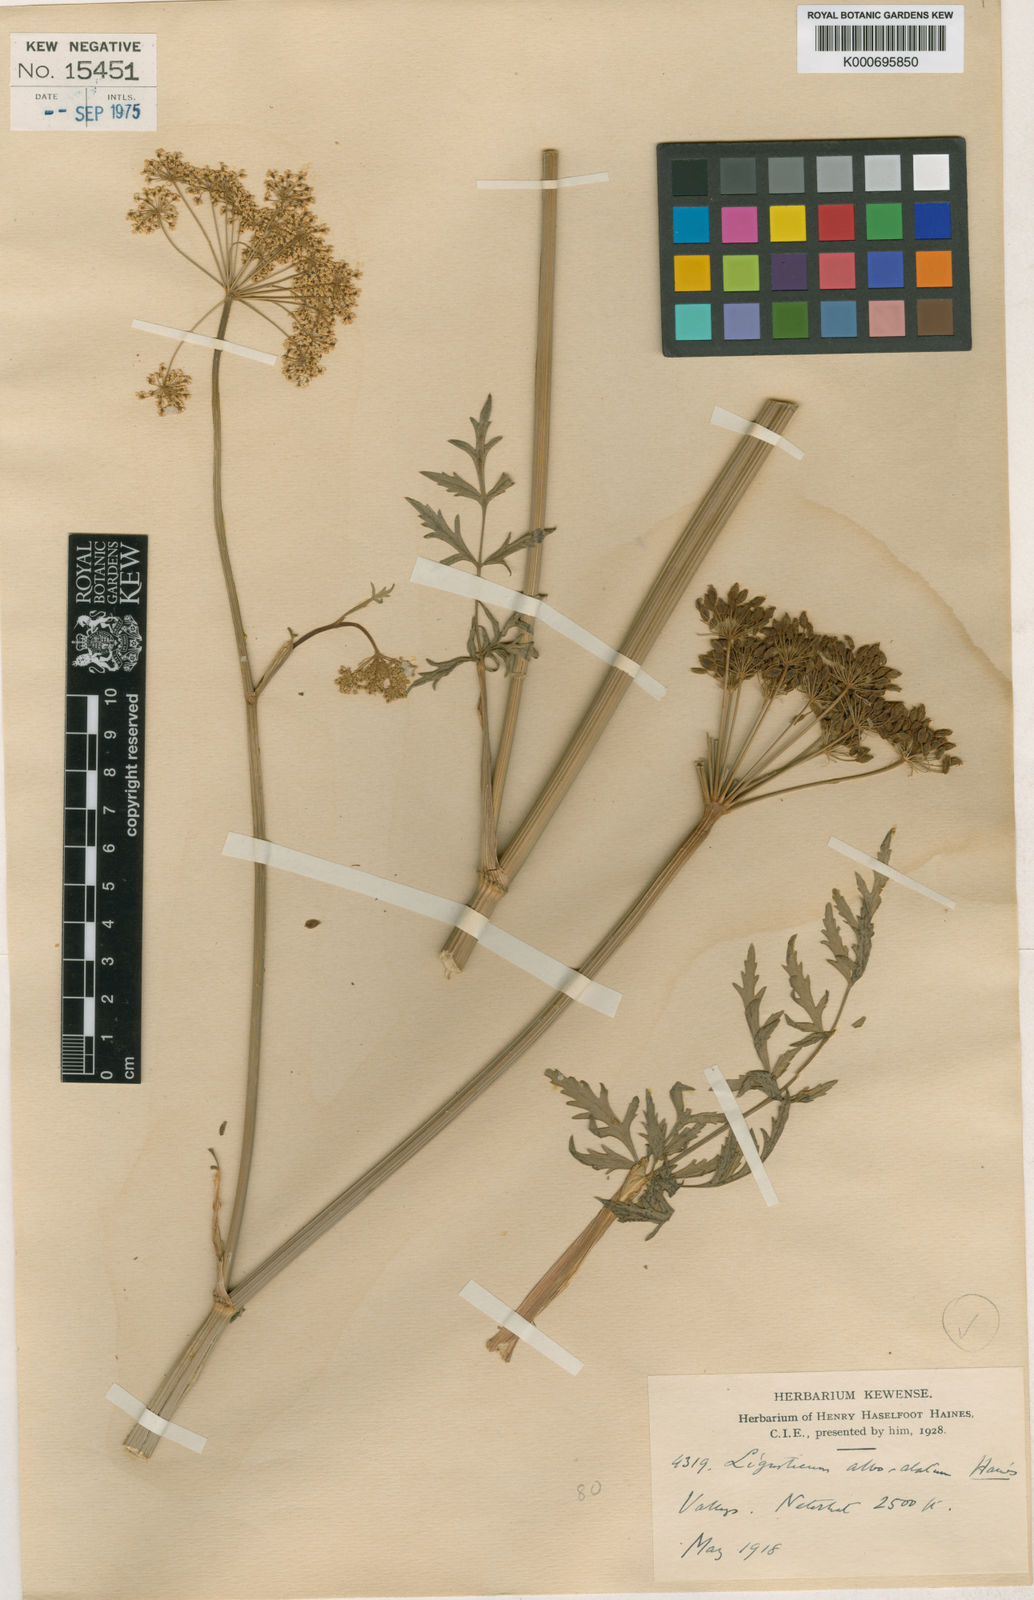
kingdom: Plantae
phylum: Tracheophyta
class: Magnoliopsida
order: Apiales
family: Apiaceae
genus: Seseli
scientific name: Seseli alboalatum
